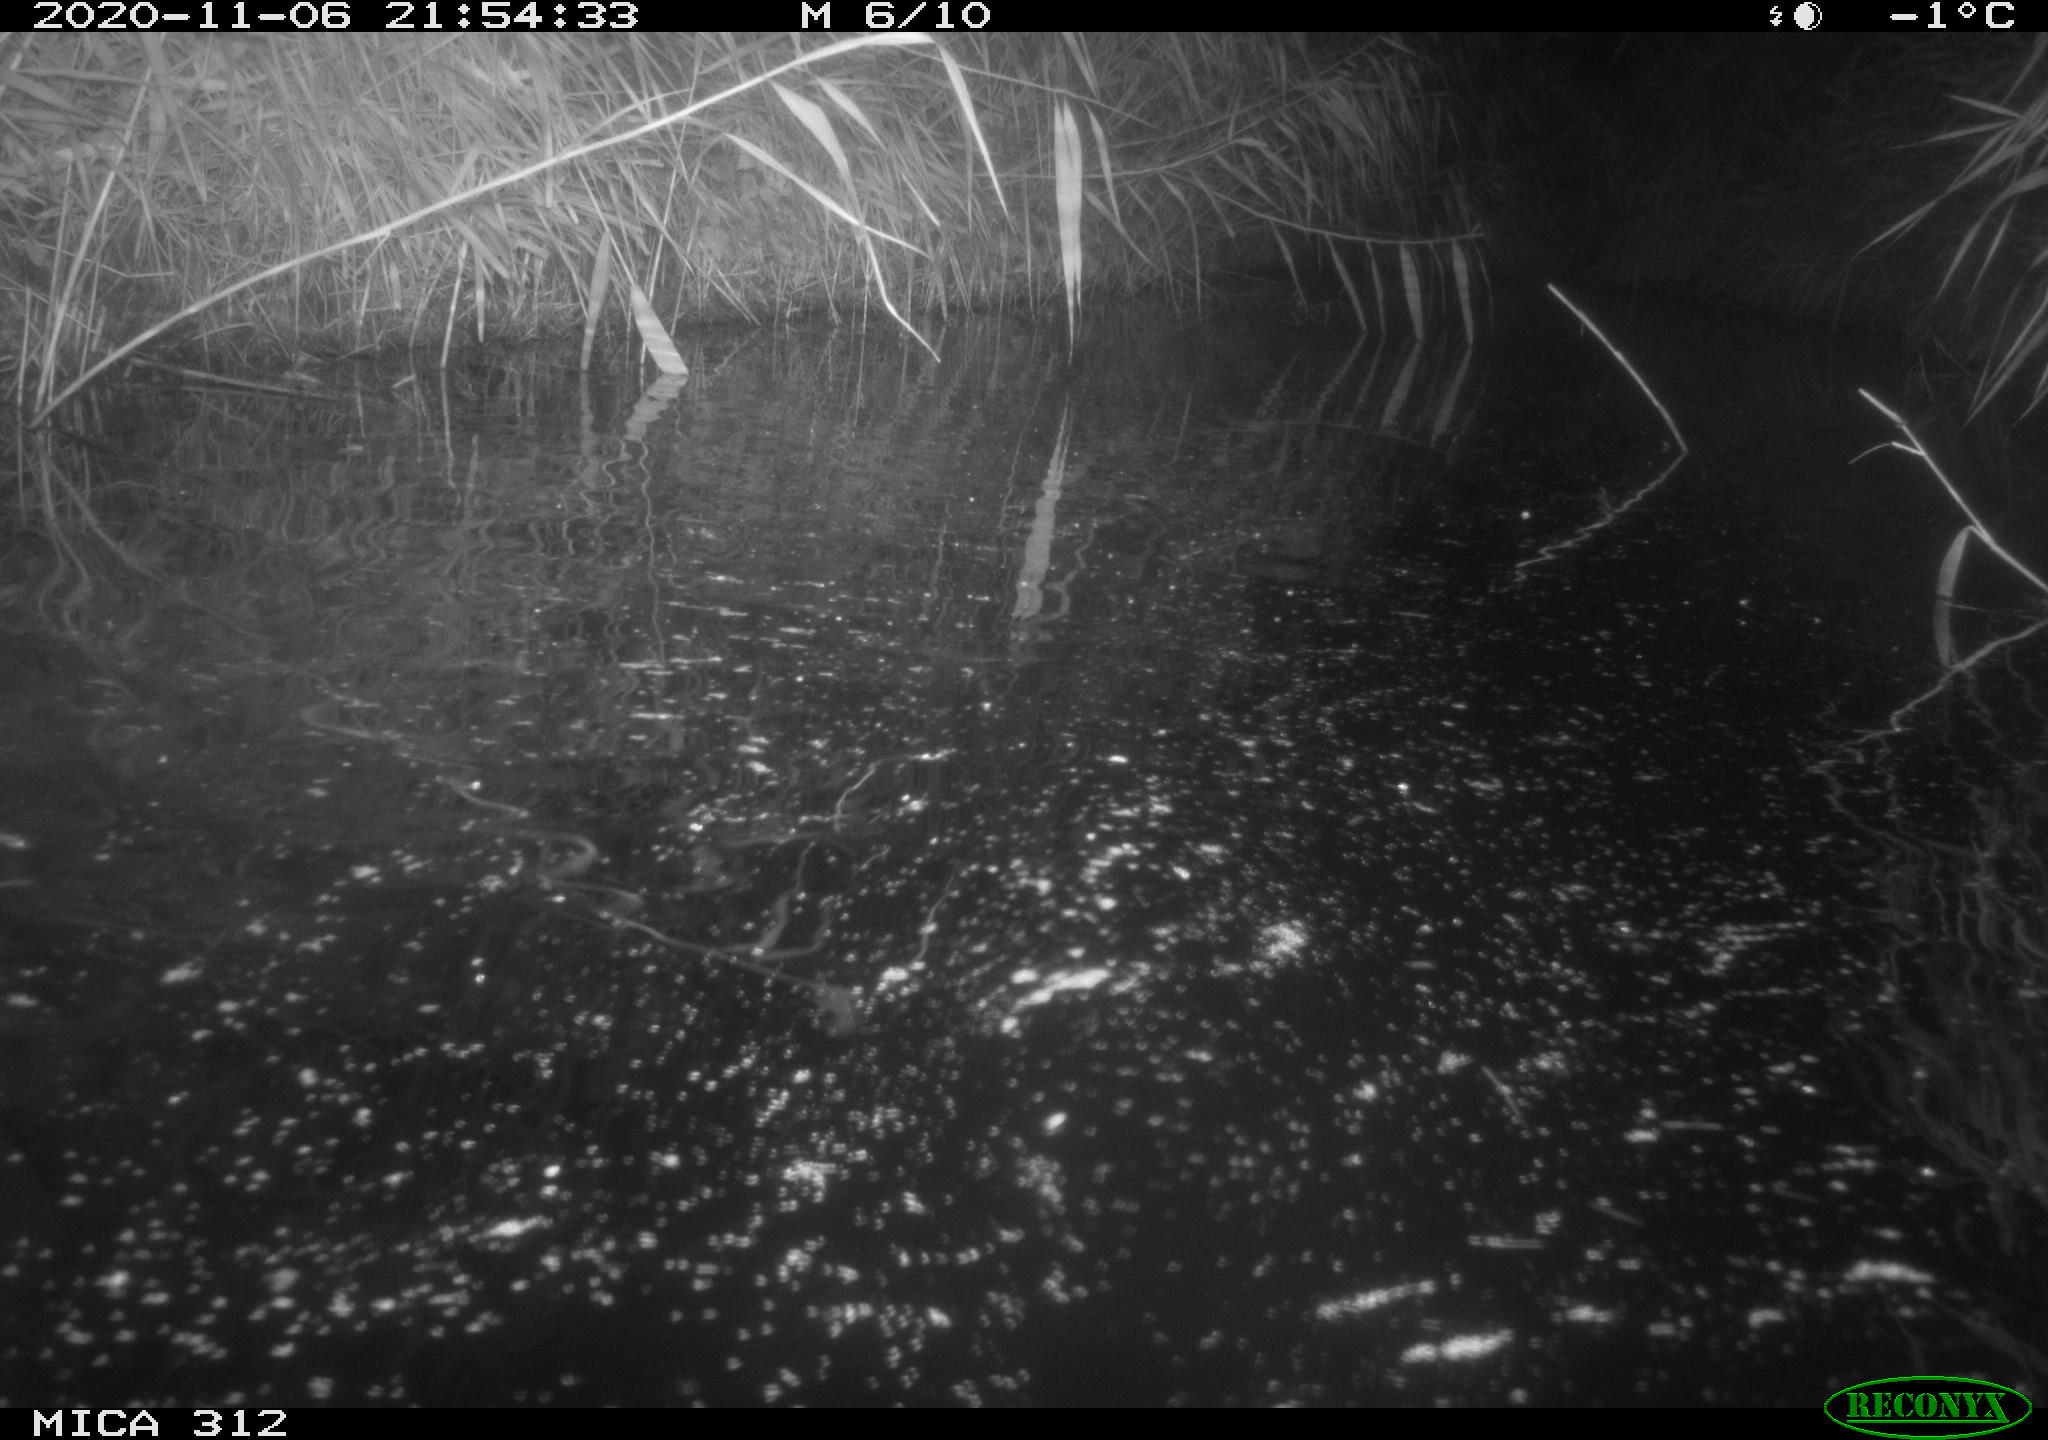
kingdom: Animalia
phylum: Chordata
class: Mammalia
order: Rodentia
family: Muridae
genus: Rattus
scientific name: Rattus norvegicus
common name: Brown rat
